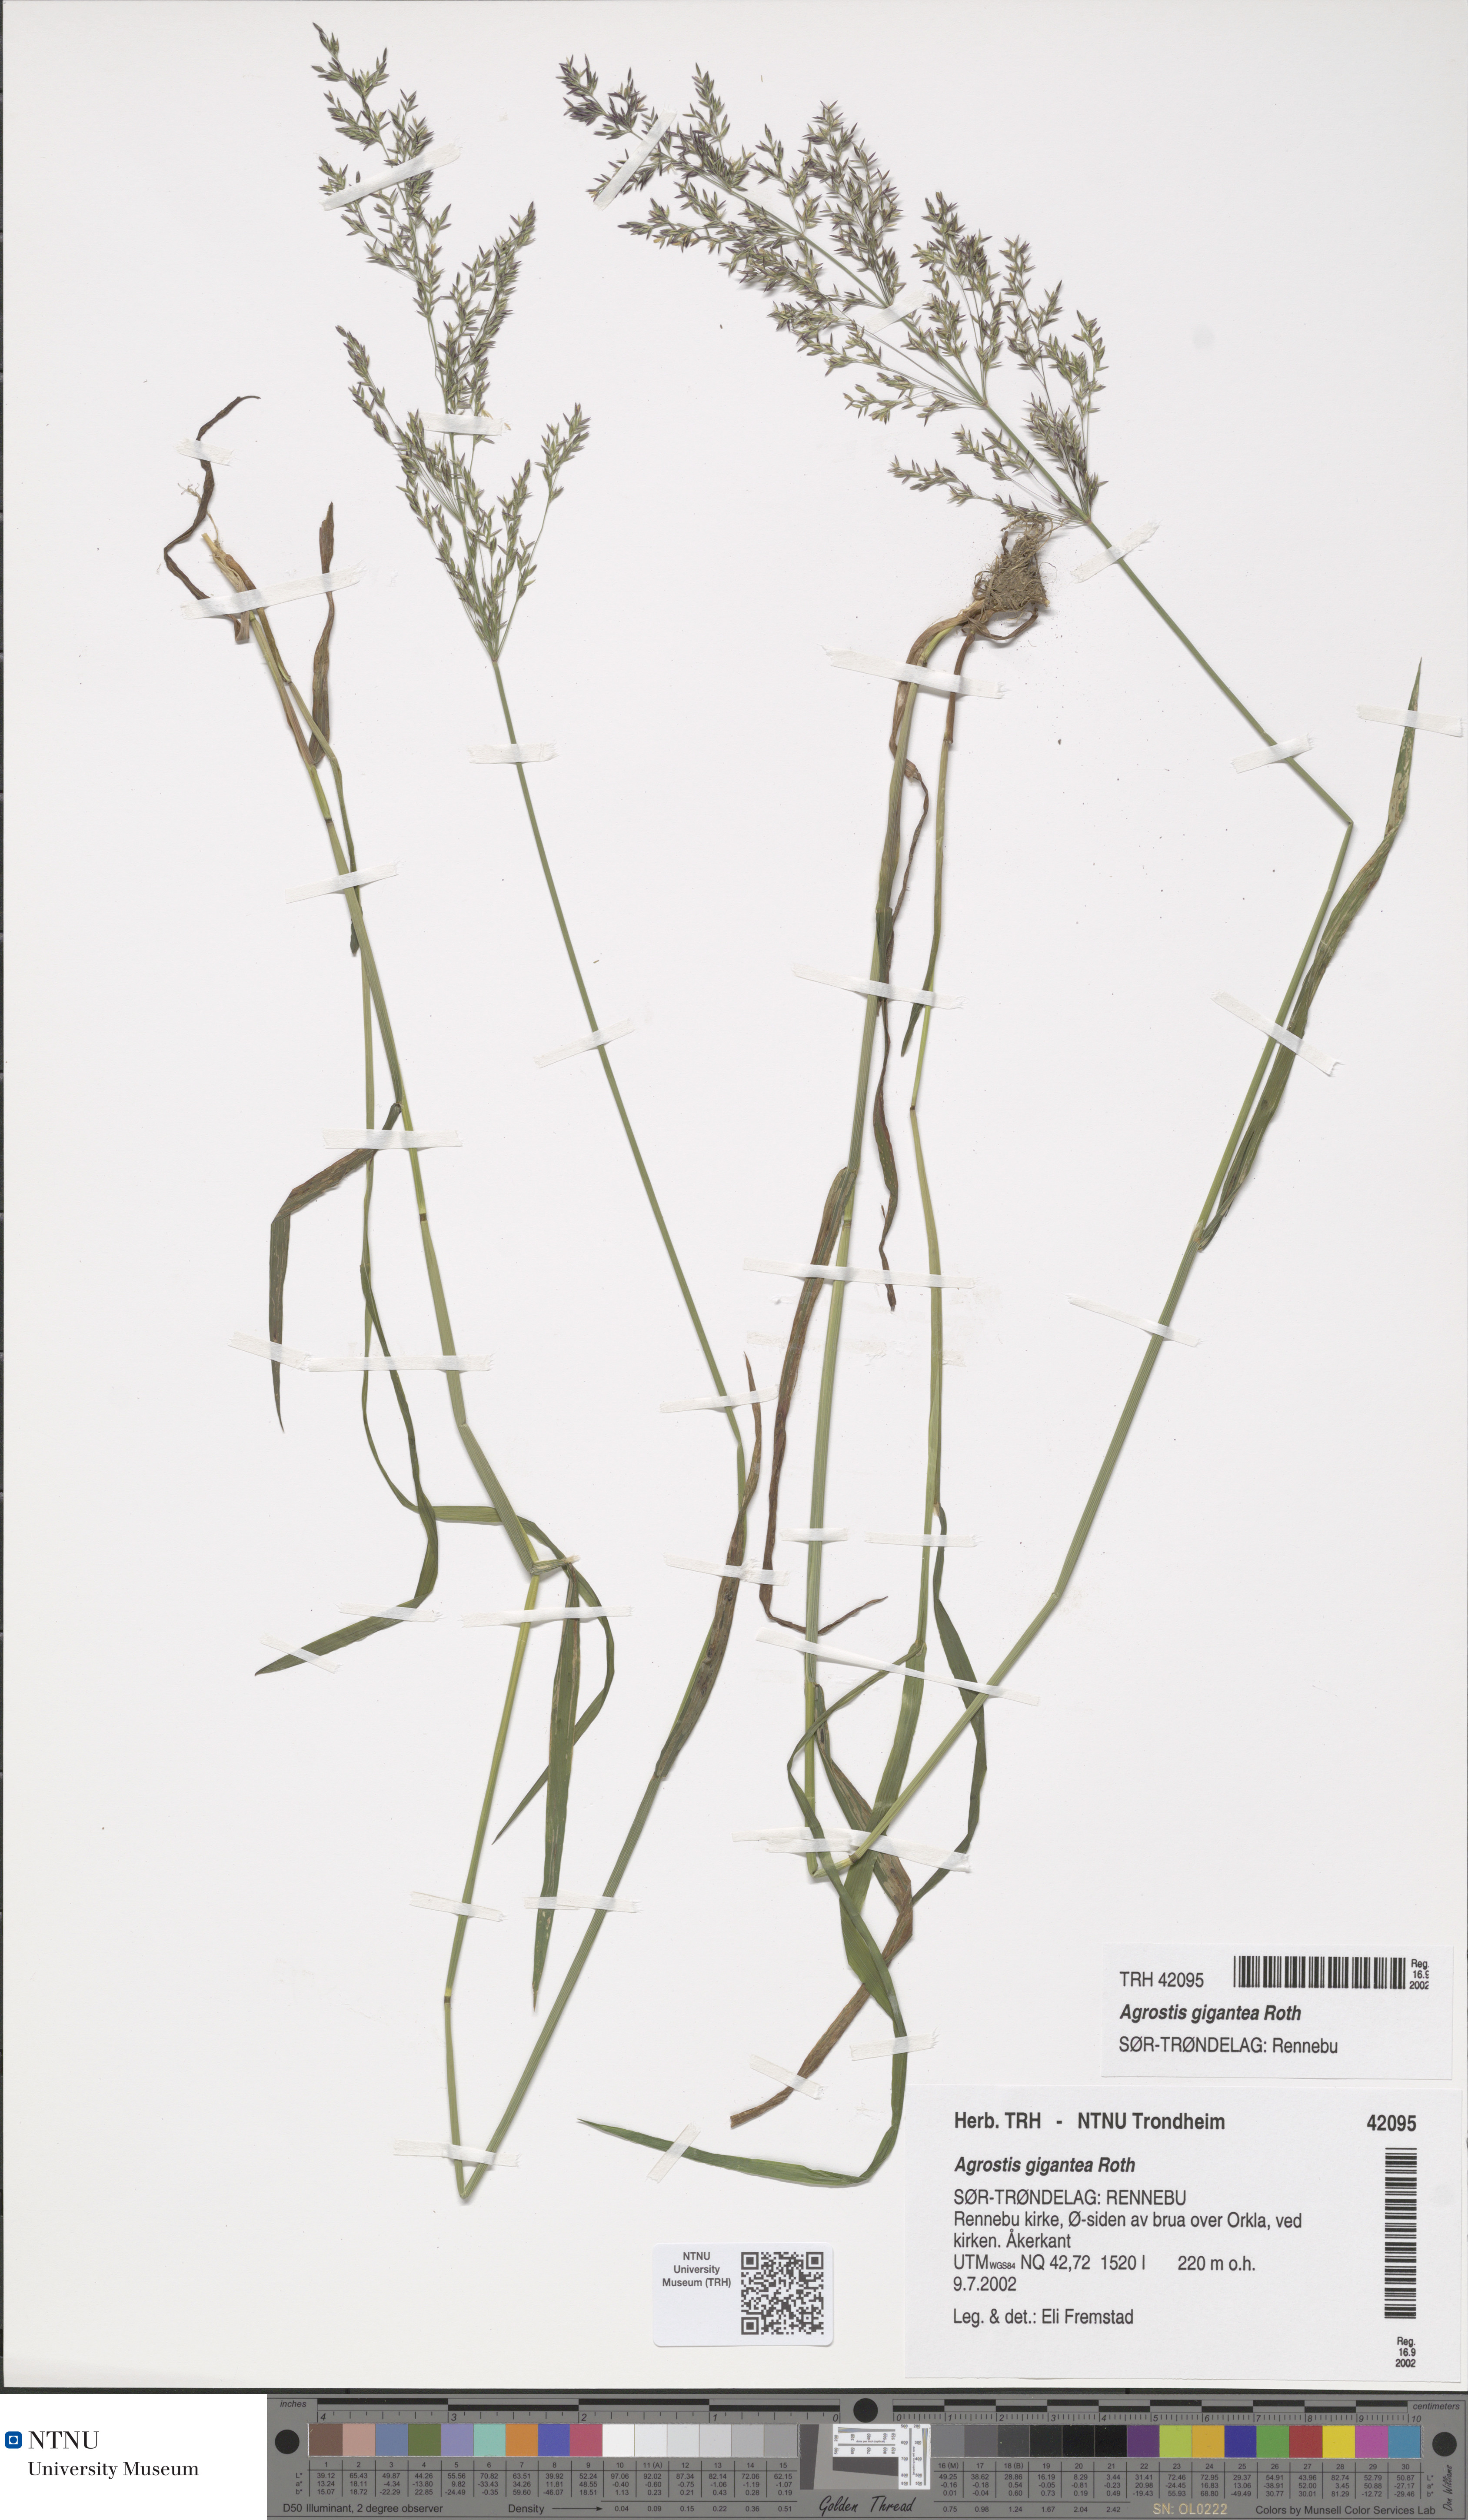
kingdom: Plantae
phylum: Tracheophyta
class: Liliopsida
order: Poales
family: Poaceae
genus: Agrostis
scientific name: Agrostis gigantea
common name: Black bent
